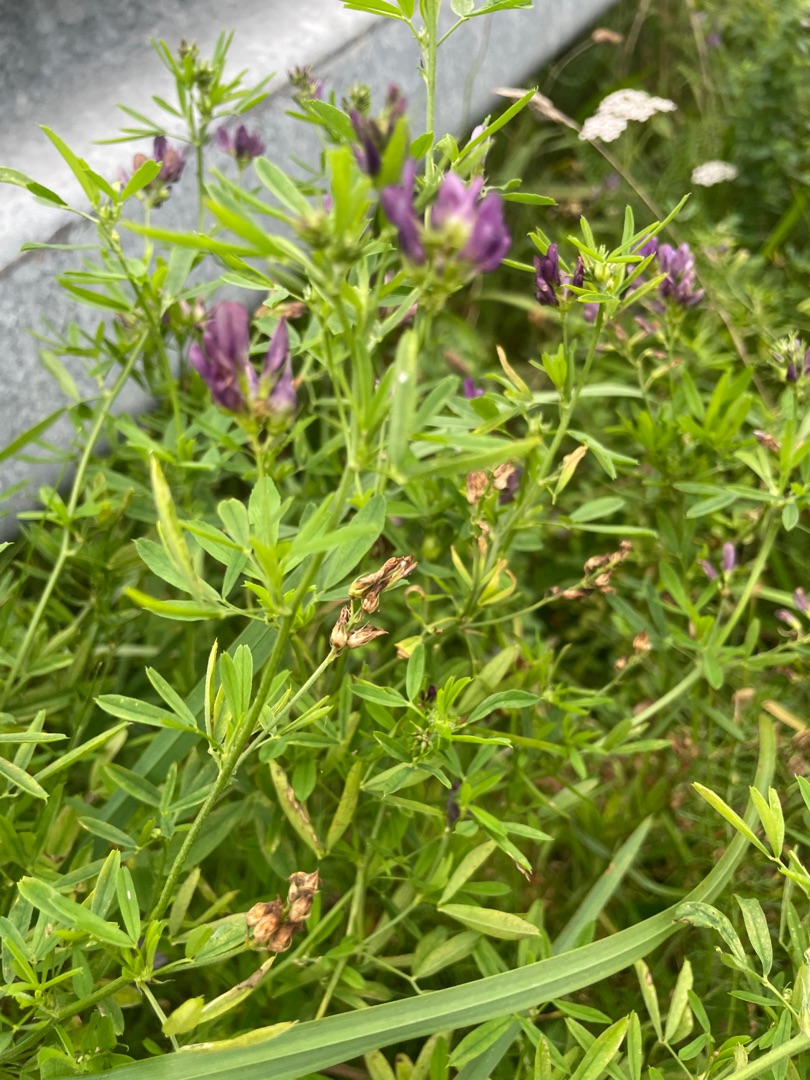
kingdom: Plantae
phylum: Tracheophyta
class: Magnoliopsida
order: Fabales
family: Fabaceae
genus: Medicago
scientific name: Medicago sativa
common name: Lucerne
